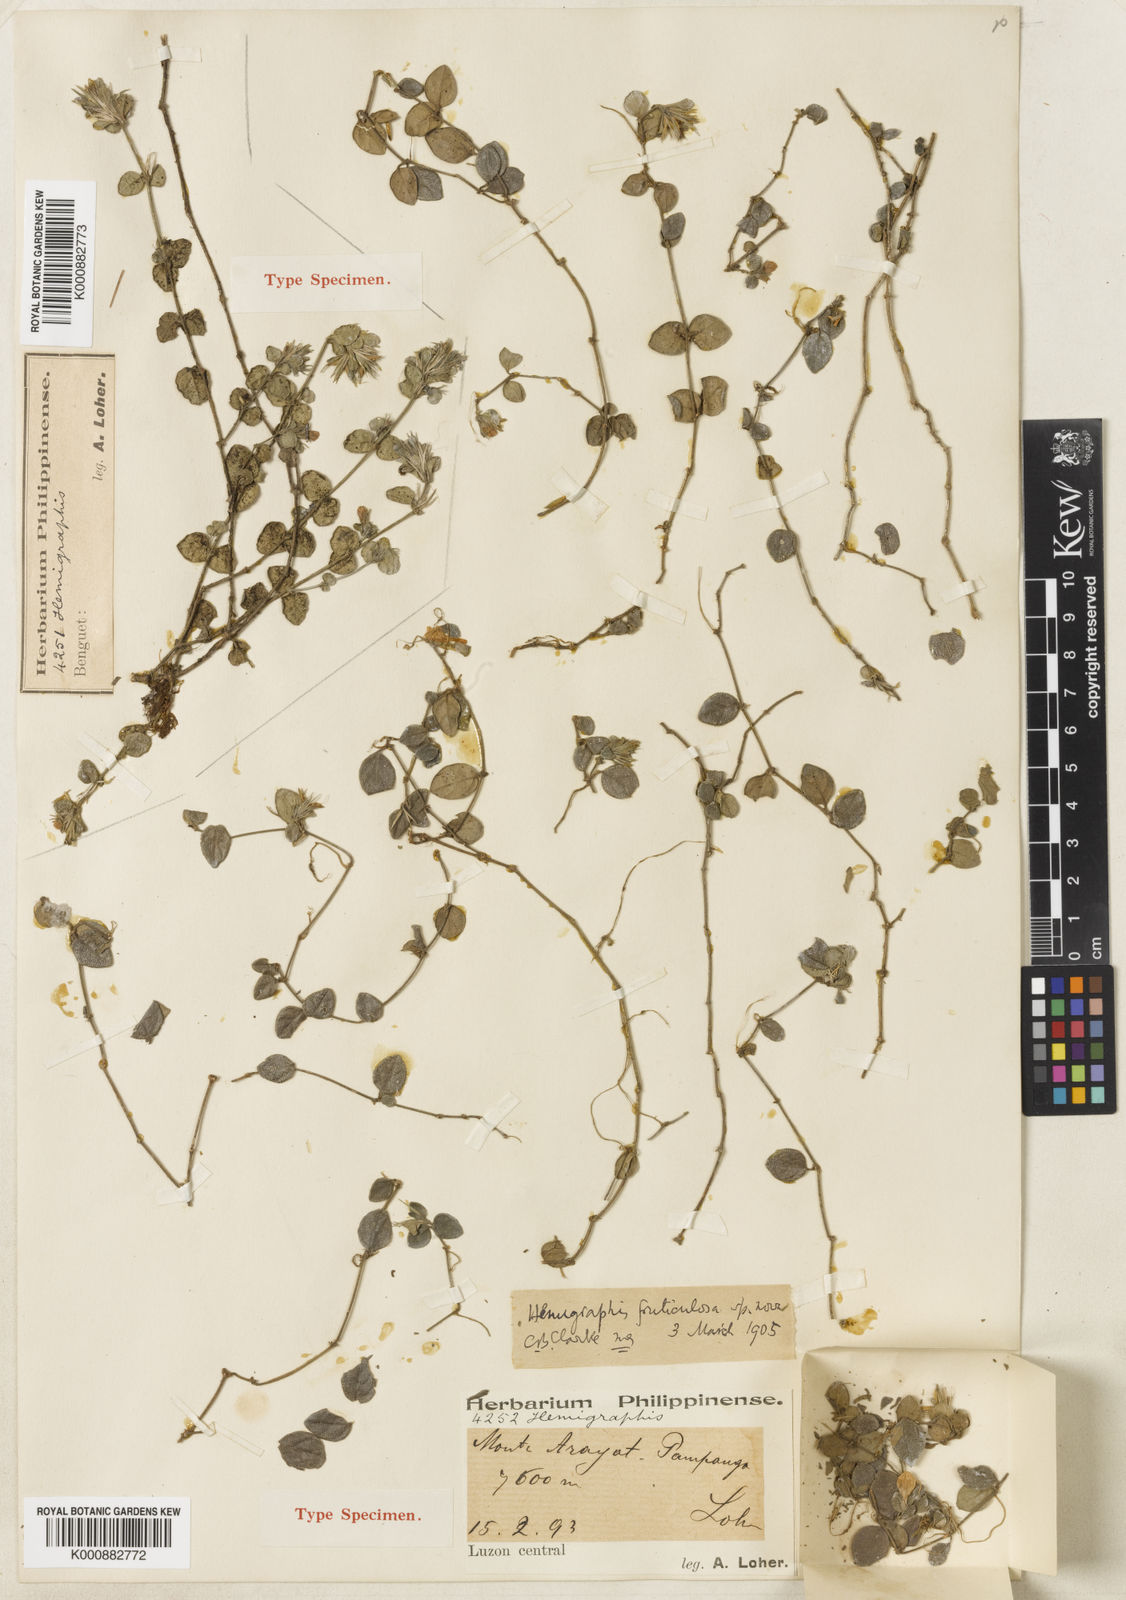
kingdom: Plantae
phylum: Tracheophyta
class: Magnoliopsida
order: Lamiales
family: Acanthaceae
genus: Strobilanthes
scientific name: Strobilanthes fruticulosa
